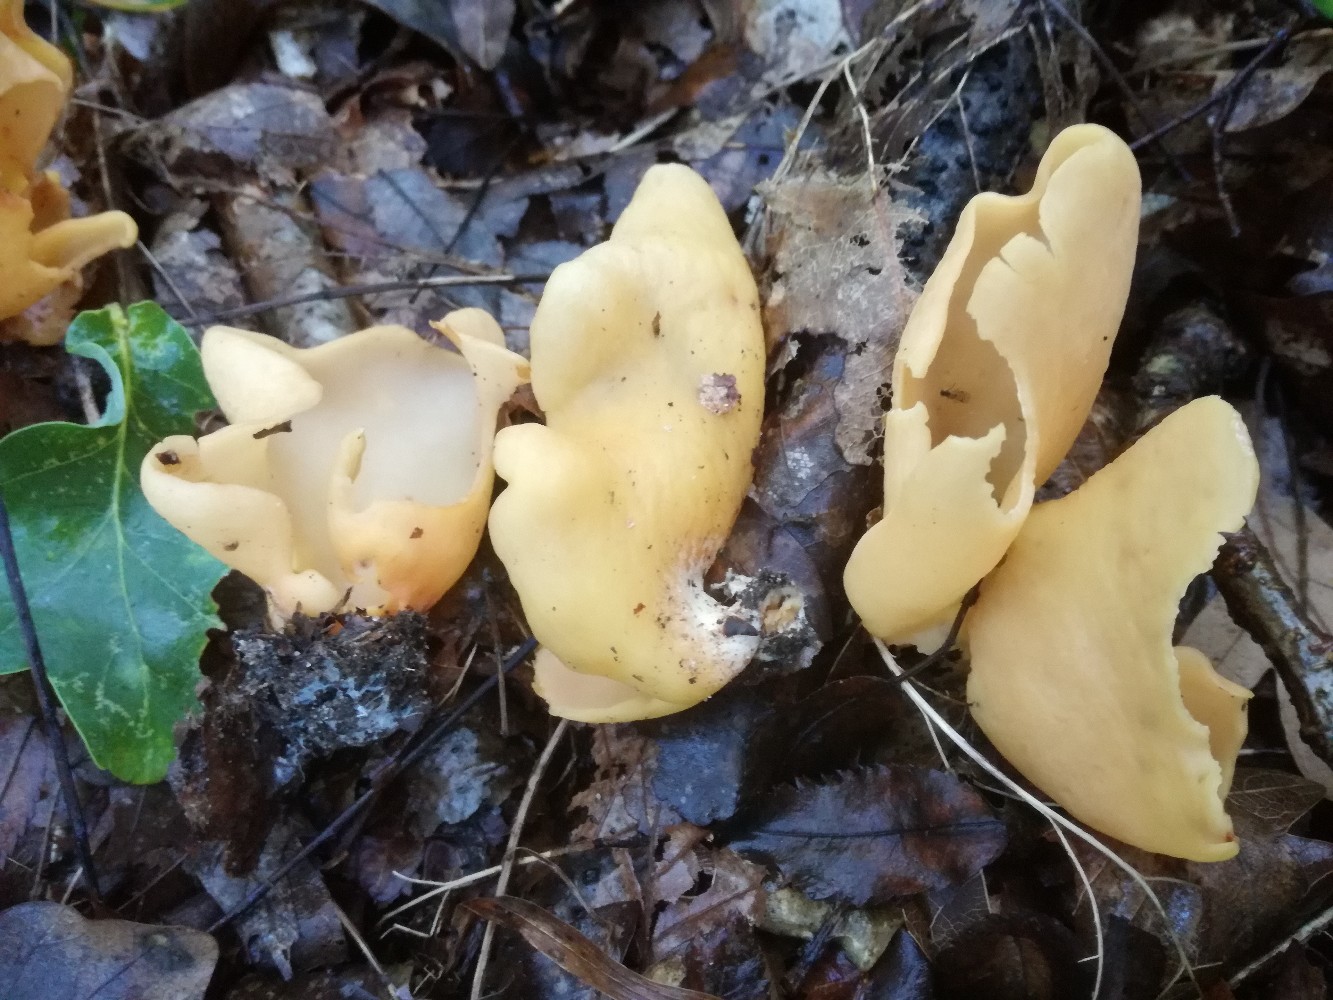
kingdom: Fungi
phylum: Ascomycota
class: Pezizomycetes
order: Pezizales
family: Otideaceae
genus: Otidea
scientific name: Otidea onotica
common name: æsel-ørebæger
